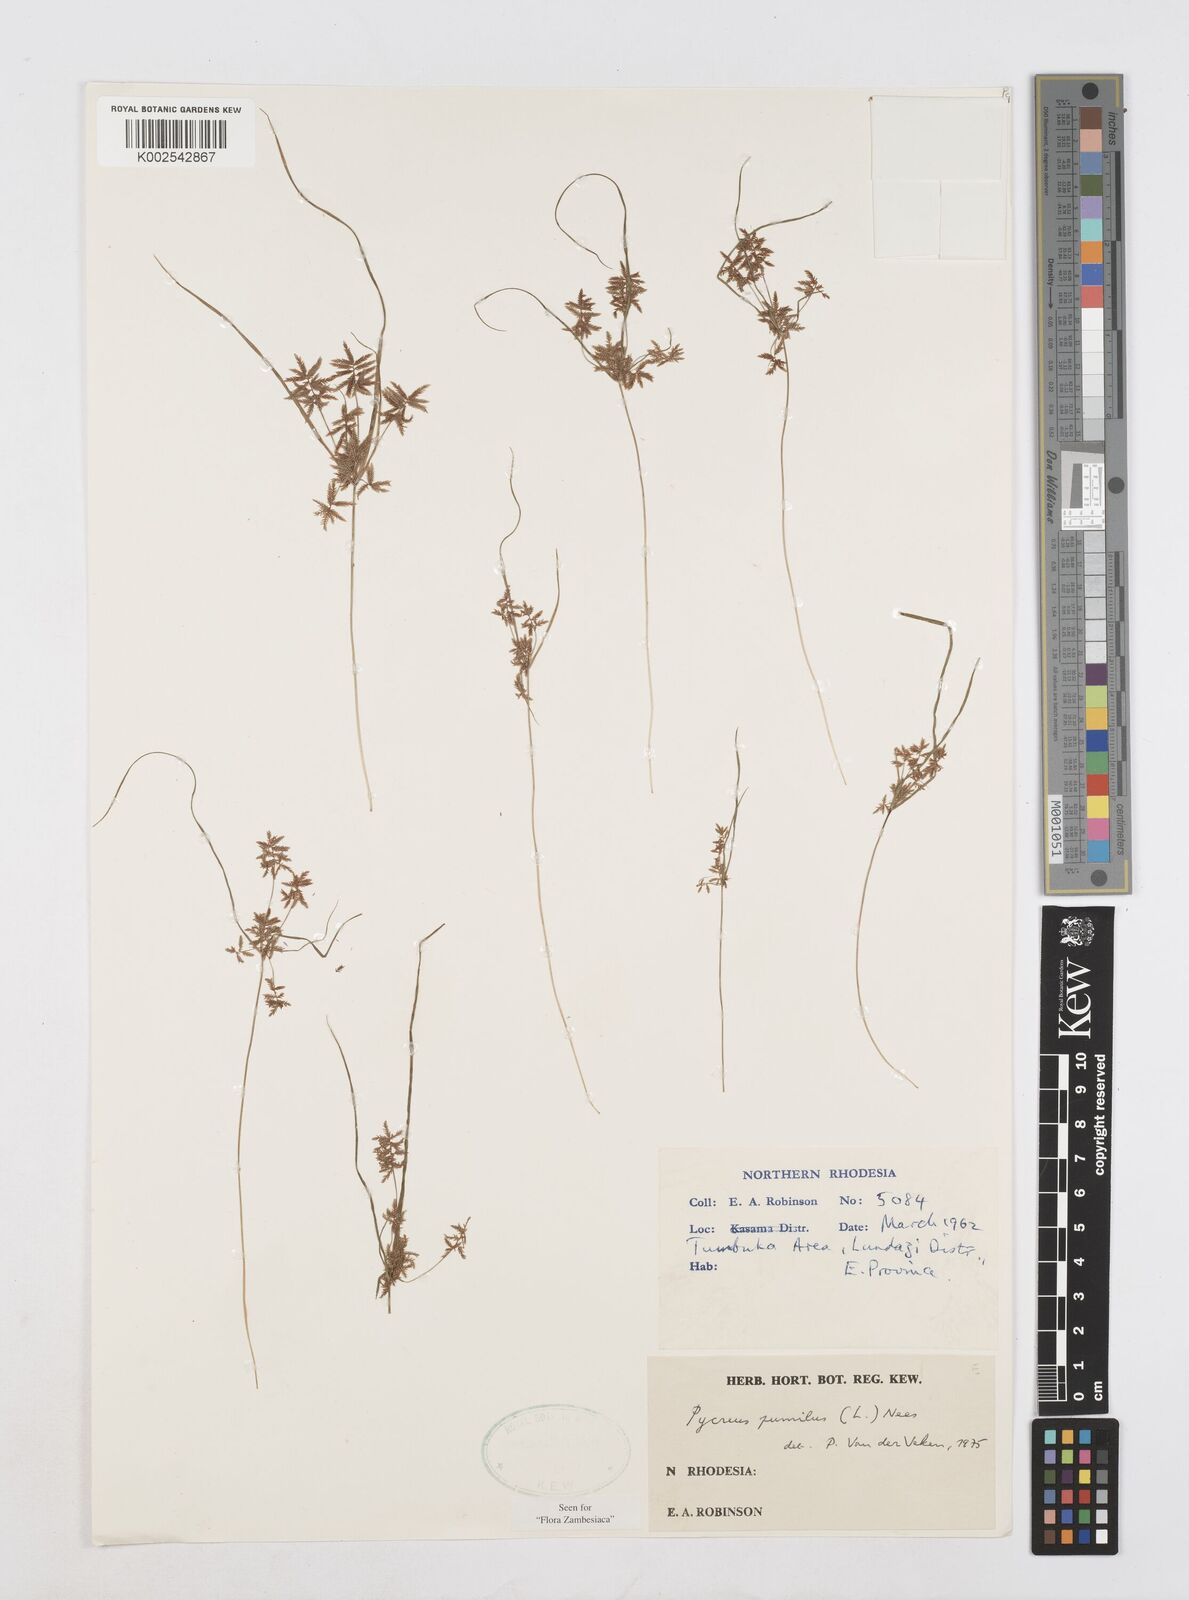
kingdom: Plantae
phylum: Tracheophyta
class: Liliopsida
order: Poales
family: Cyperaceae
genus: Cyperus
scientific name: Cyperus pumilus
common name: Low flatsedge
